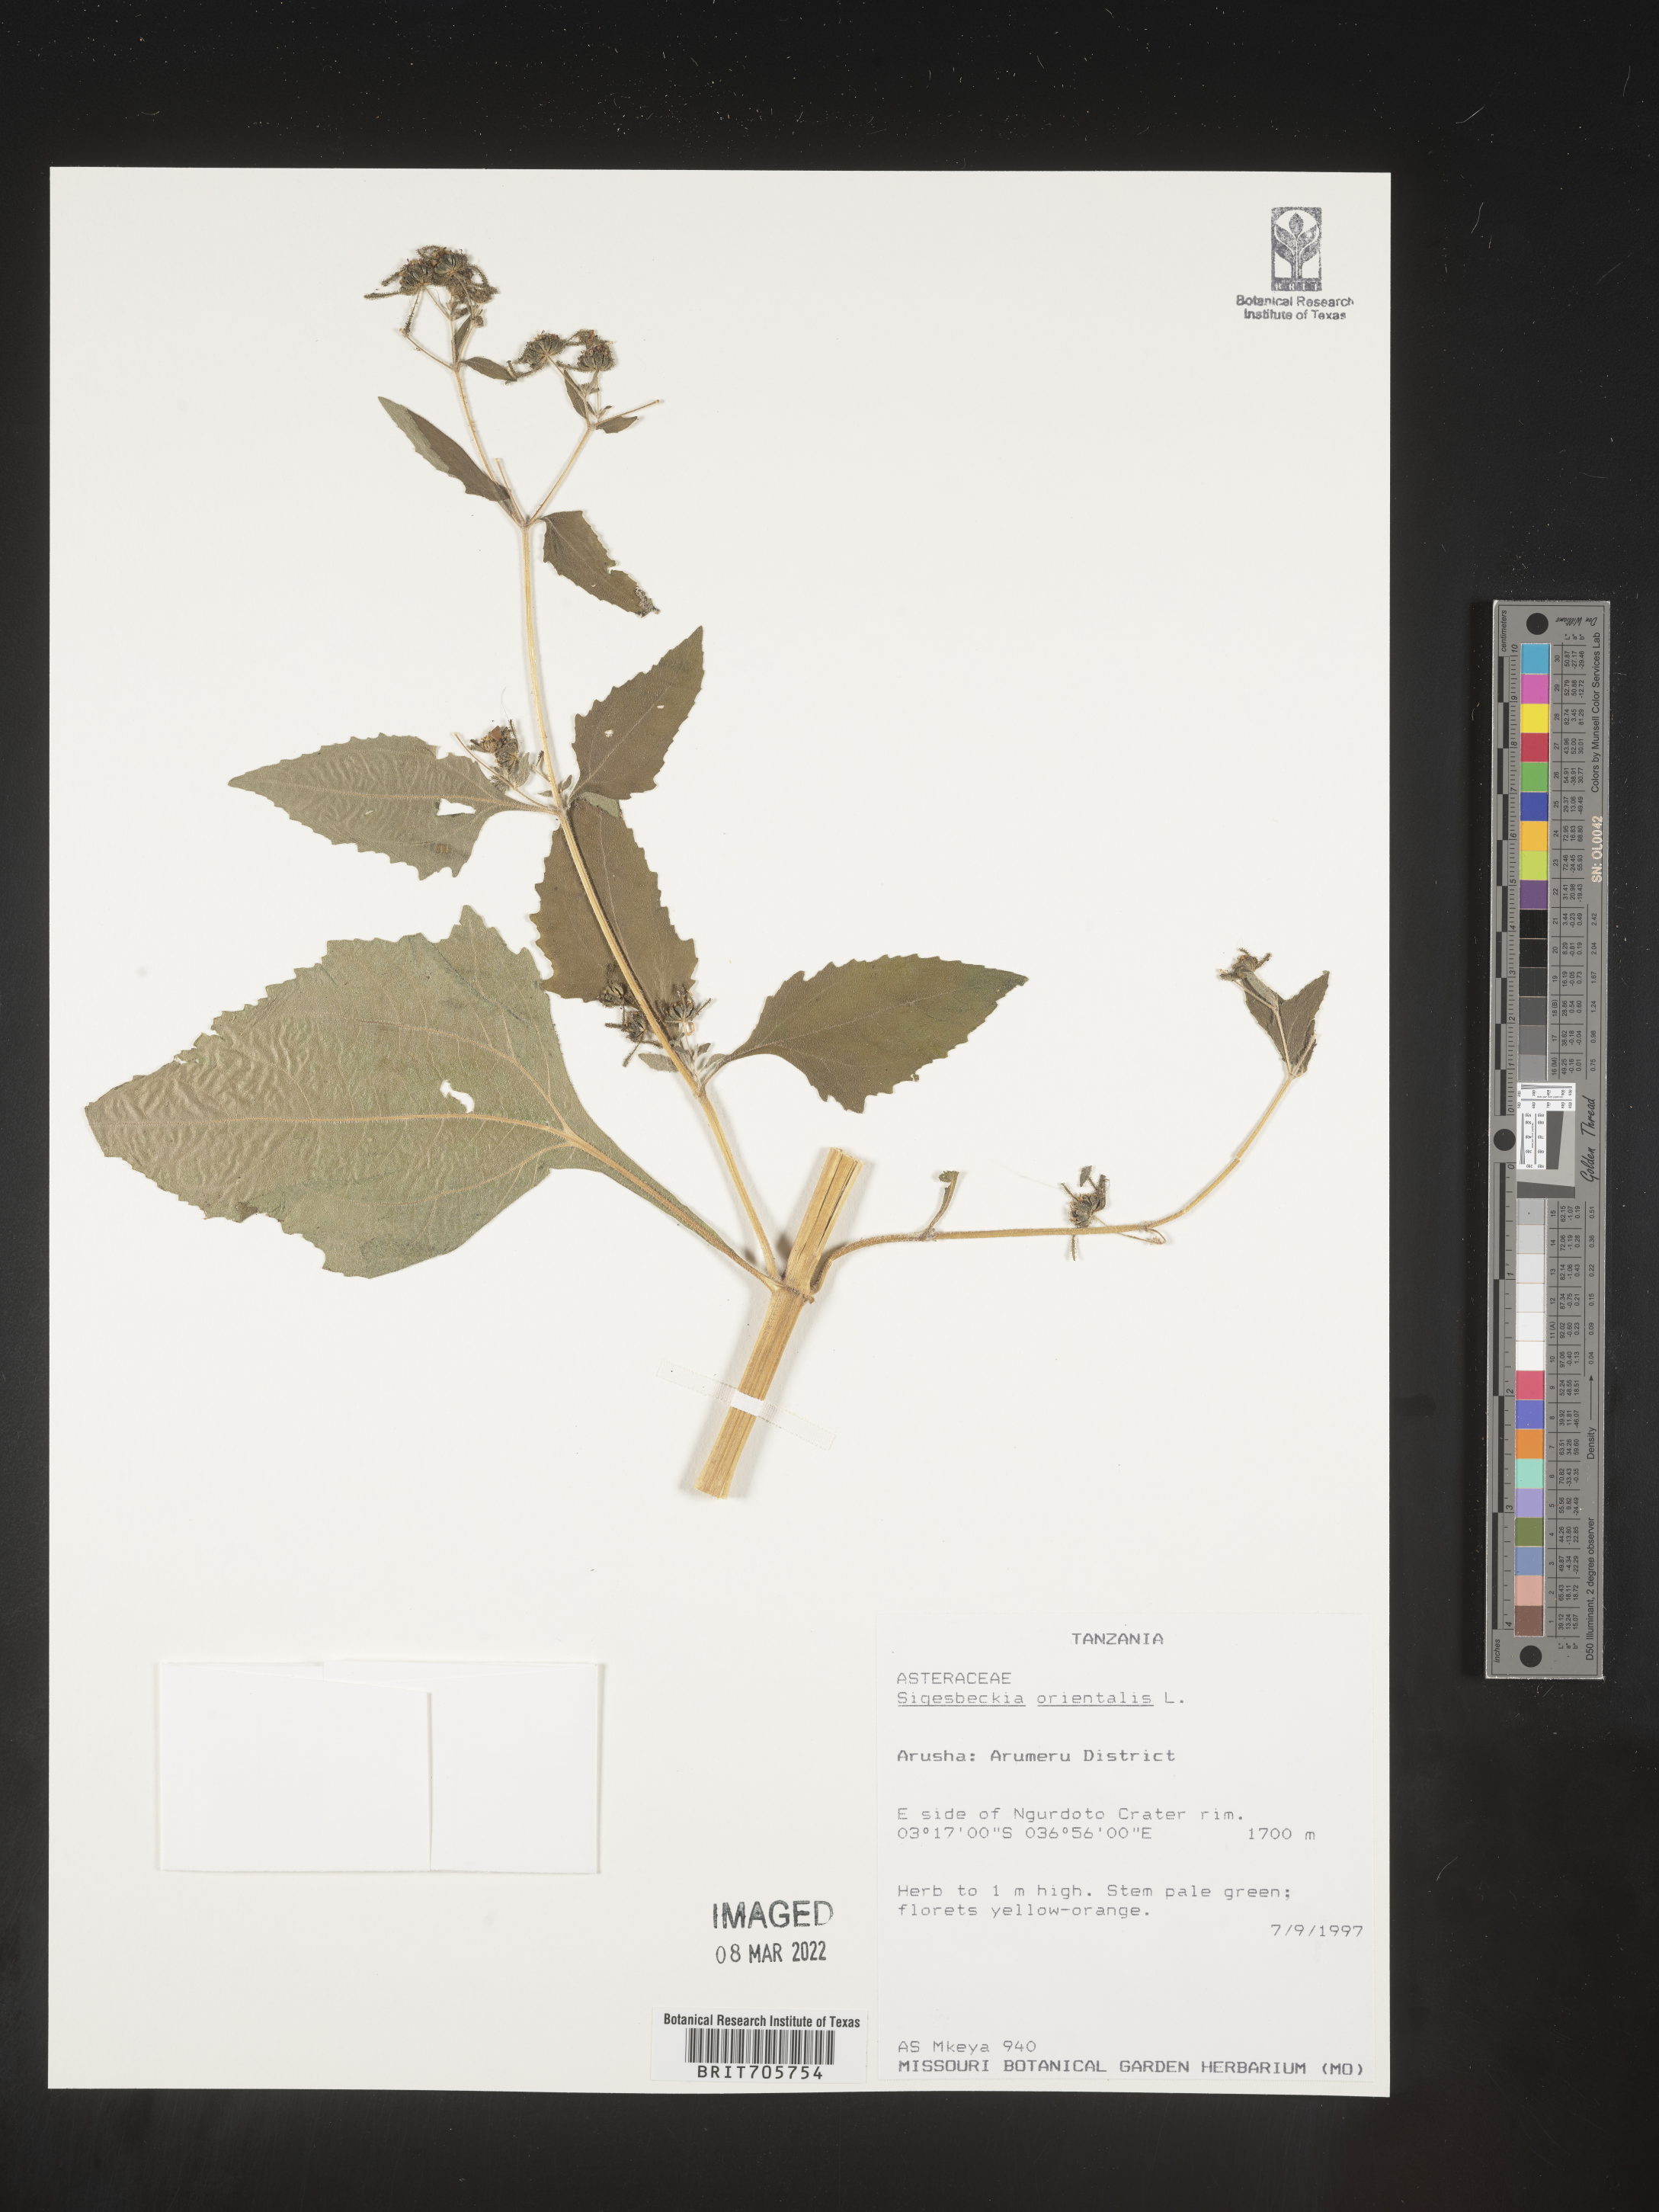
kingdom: Plantae
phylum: Tracheophyta
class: Magnoliopsida
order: Asterales
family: Asteraceae
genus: Siegesbeckia
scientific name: Siegesbeckia
